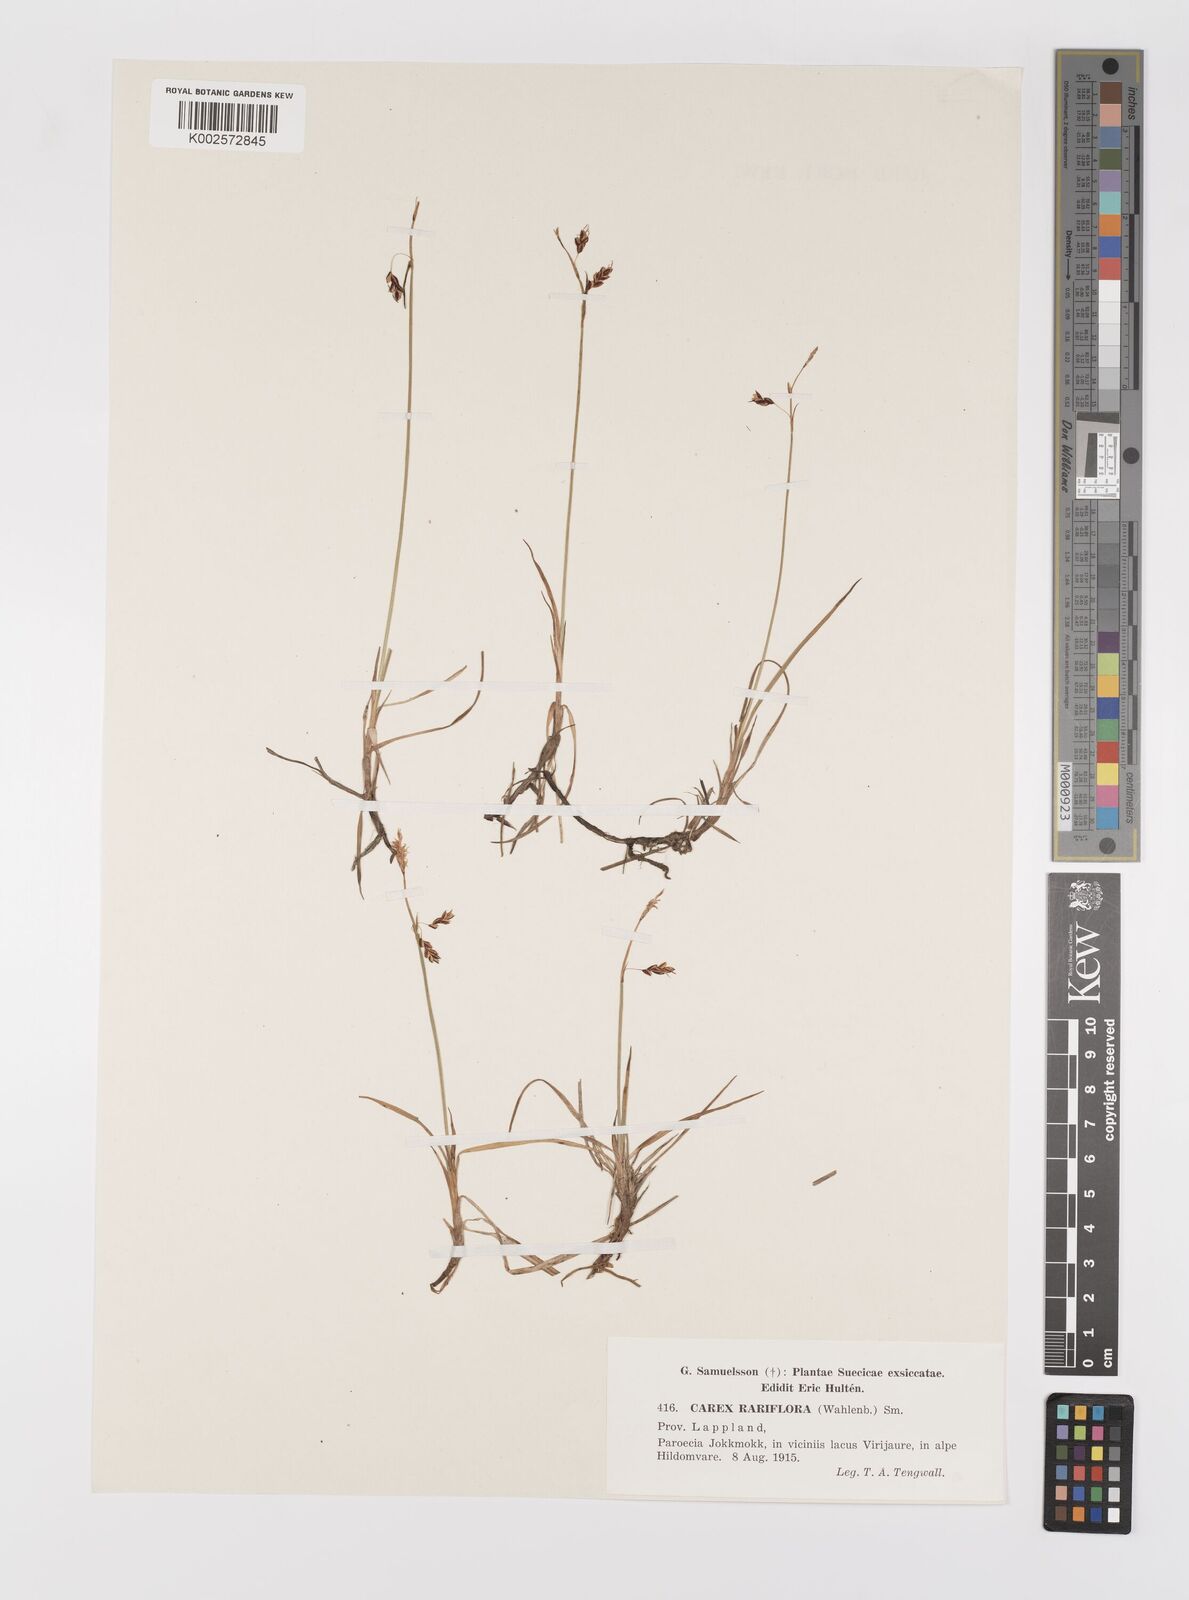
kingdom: Plantae
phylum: Tracheophyta
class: Liliopsida
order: Poales
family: Cyperaceae
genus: Carex
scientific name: Carex rariflora
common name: Loose-flowered alpine sedge
